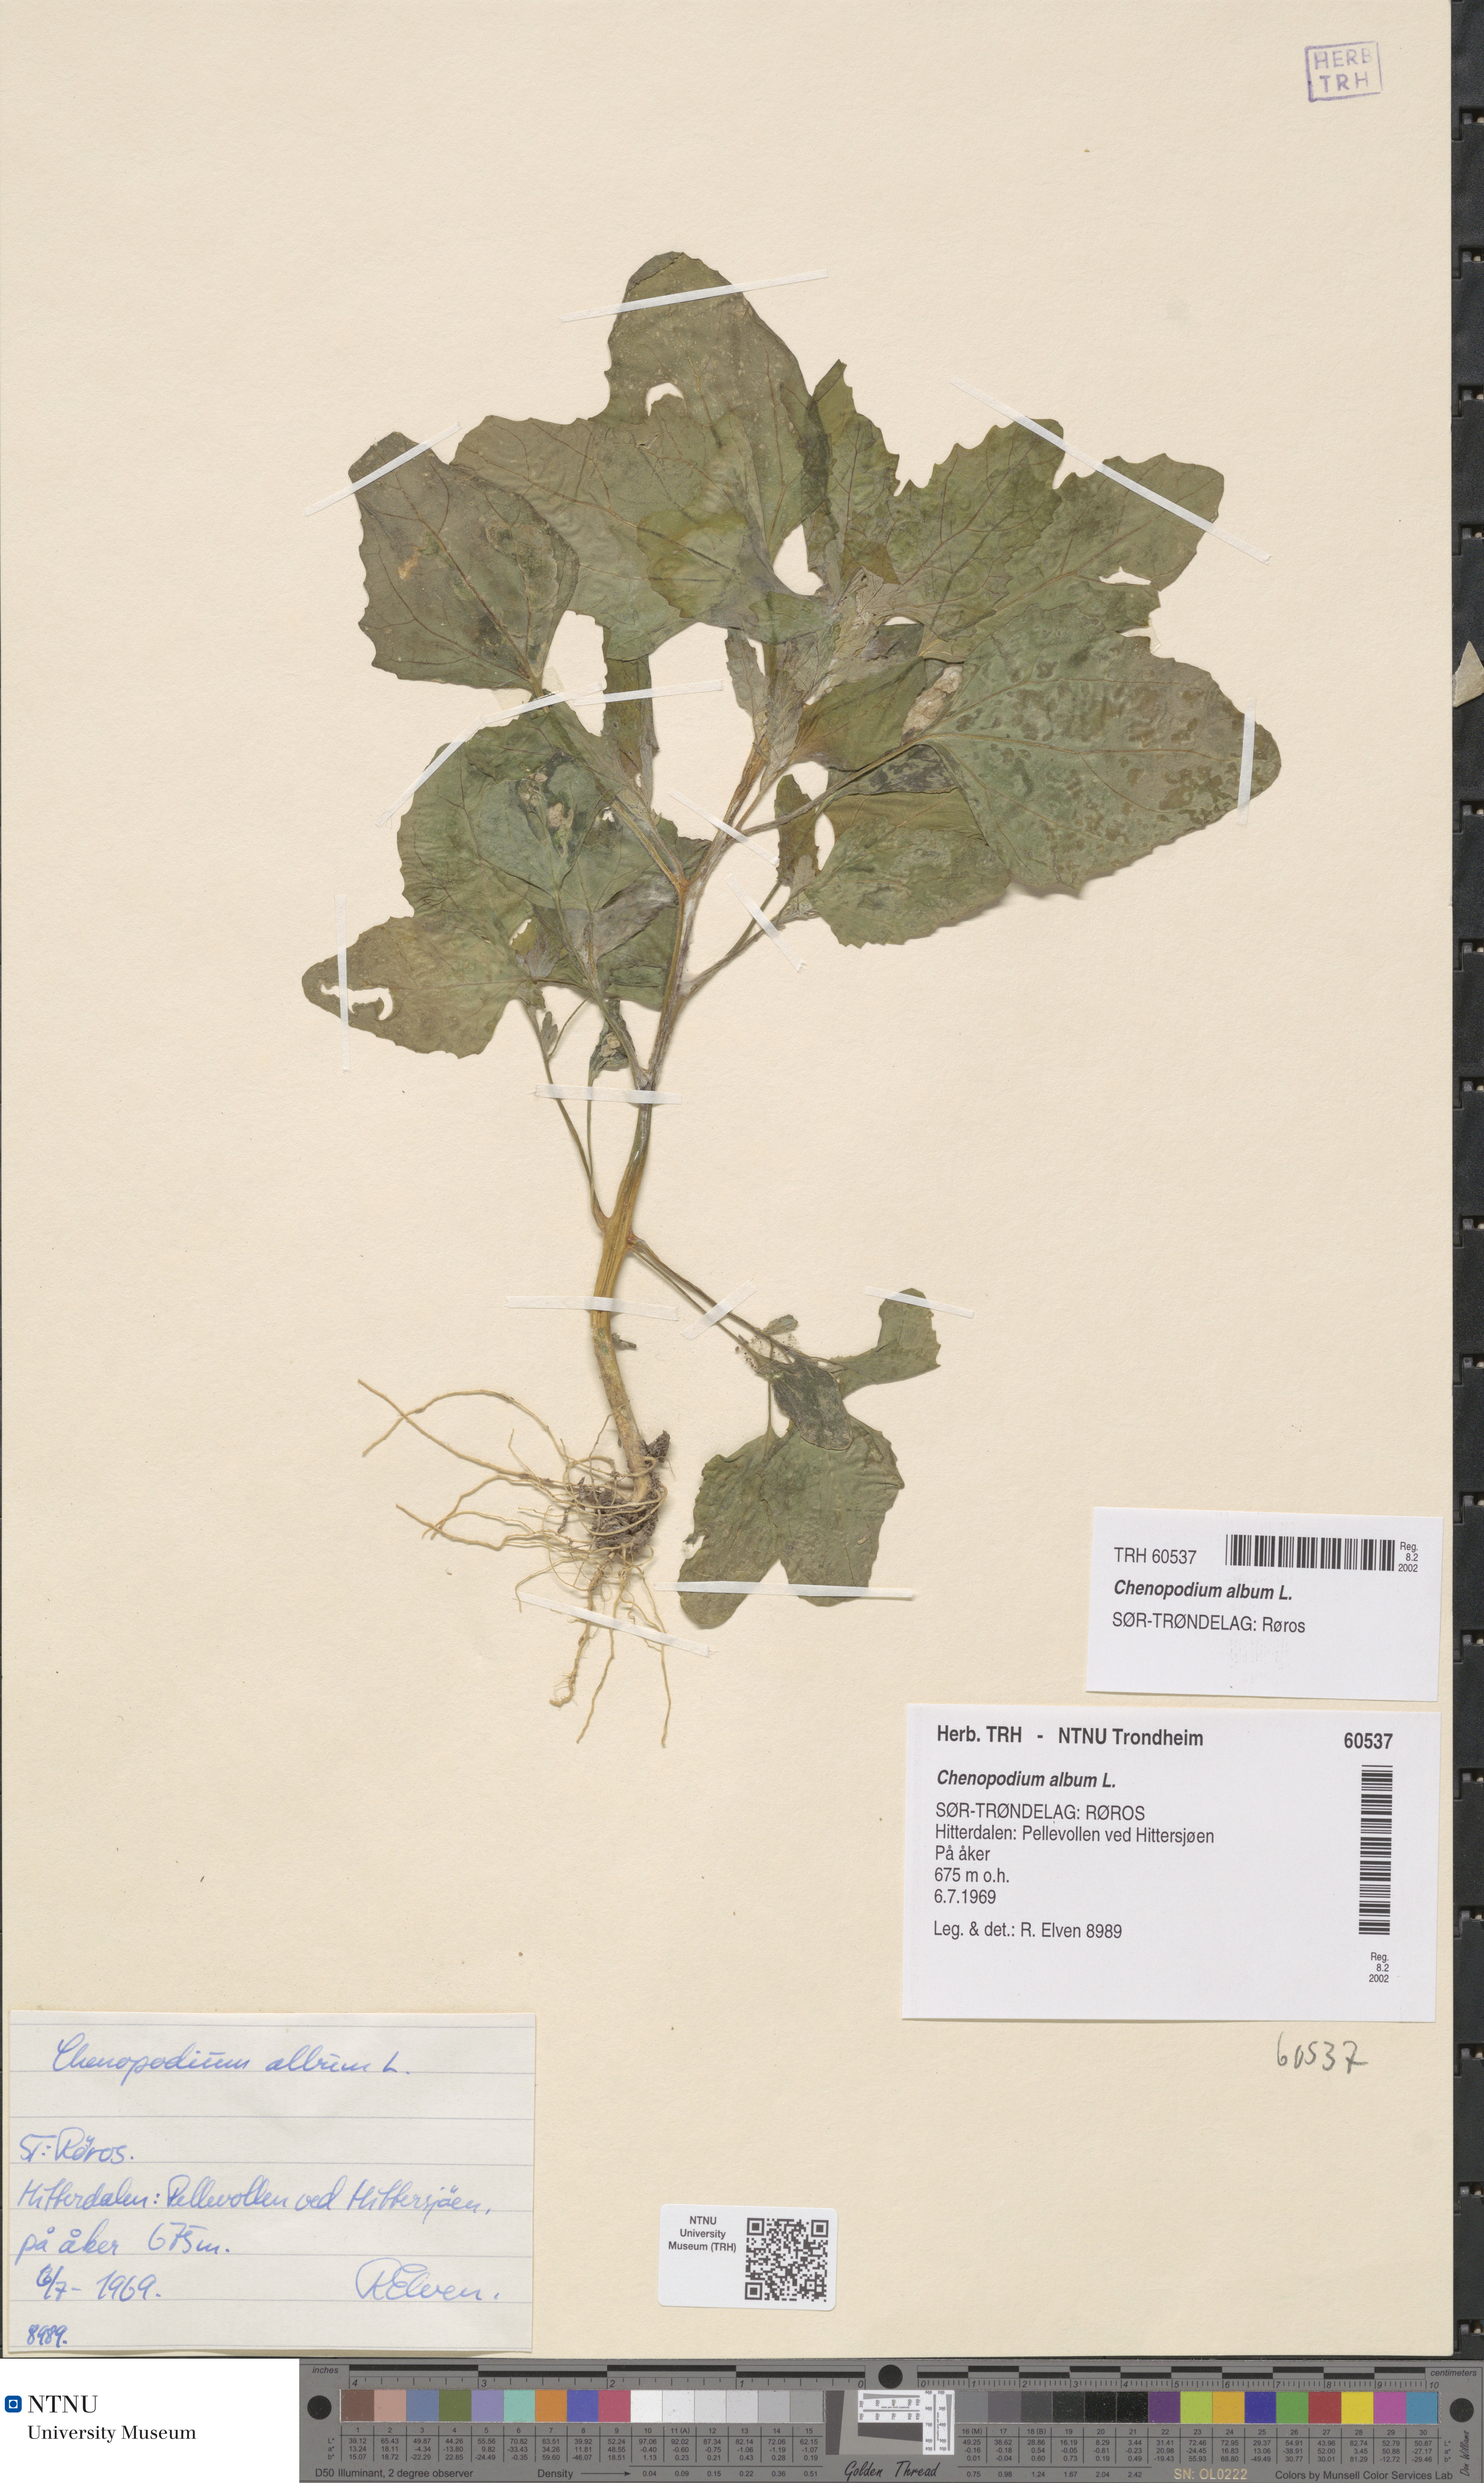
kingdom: Plantae
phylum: Tracheophyta
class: Magnoliopsida
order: Caryophyllales
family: Amaranthaceae
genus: Chenopodium
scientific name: Chenopodium album
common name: Fat-hen
